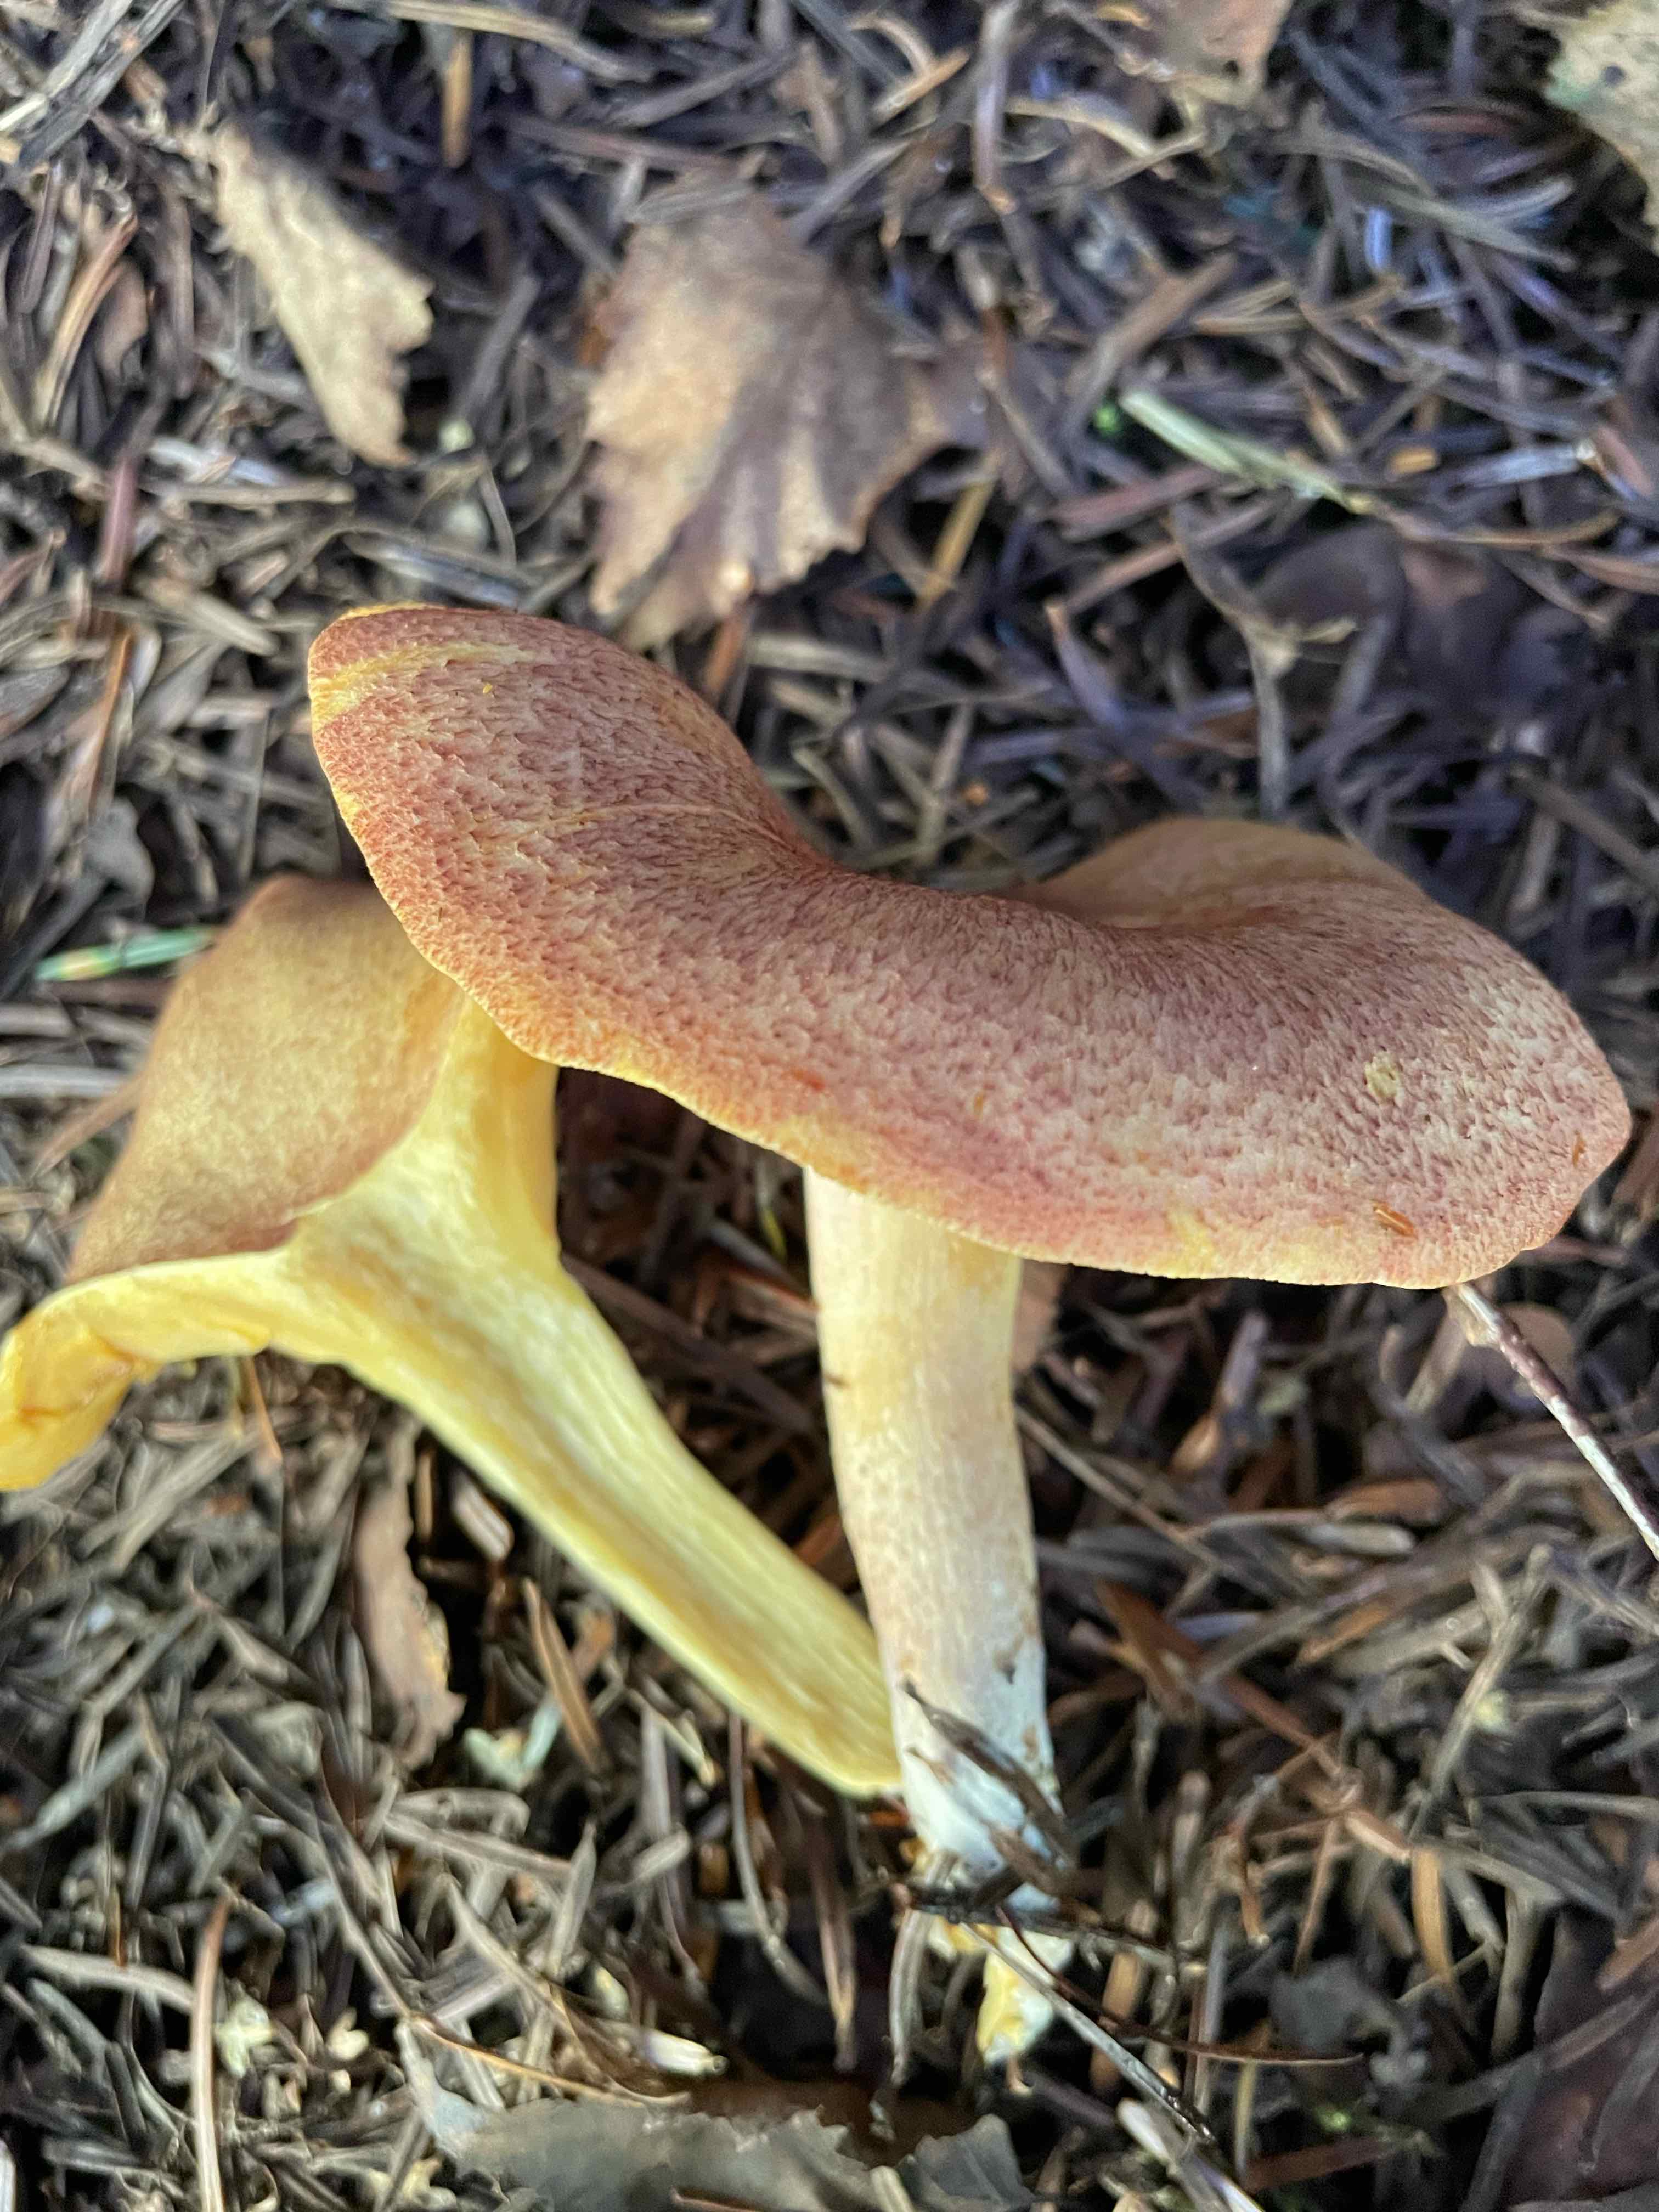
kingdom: Fungi
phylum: Basidiomycota
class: Agaricomycetes
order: Agaricales
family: Tricholomataceae
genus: Tricholomopsis
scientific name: Tricholomopsis rutilans
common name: purpur-væbnerhat
